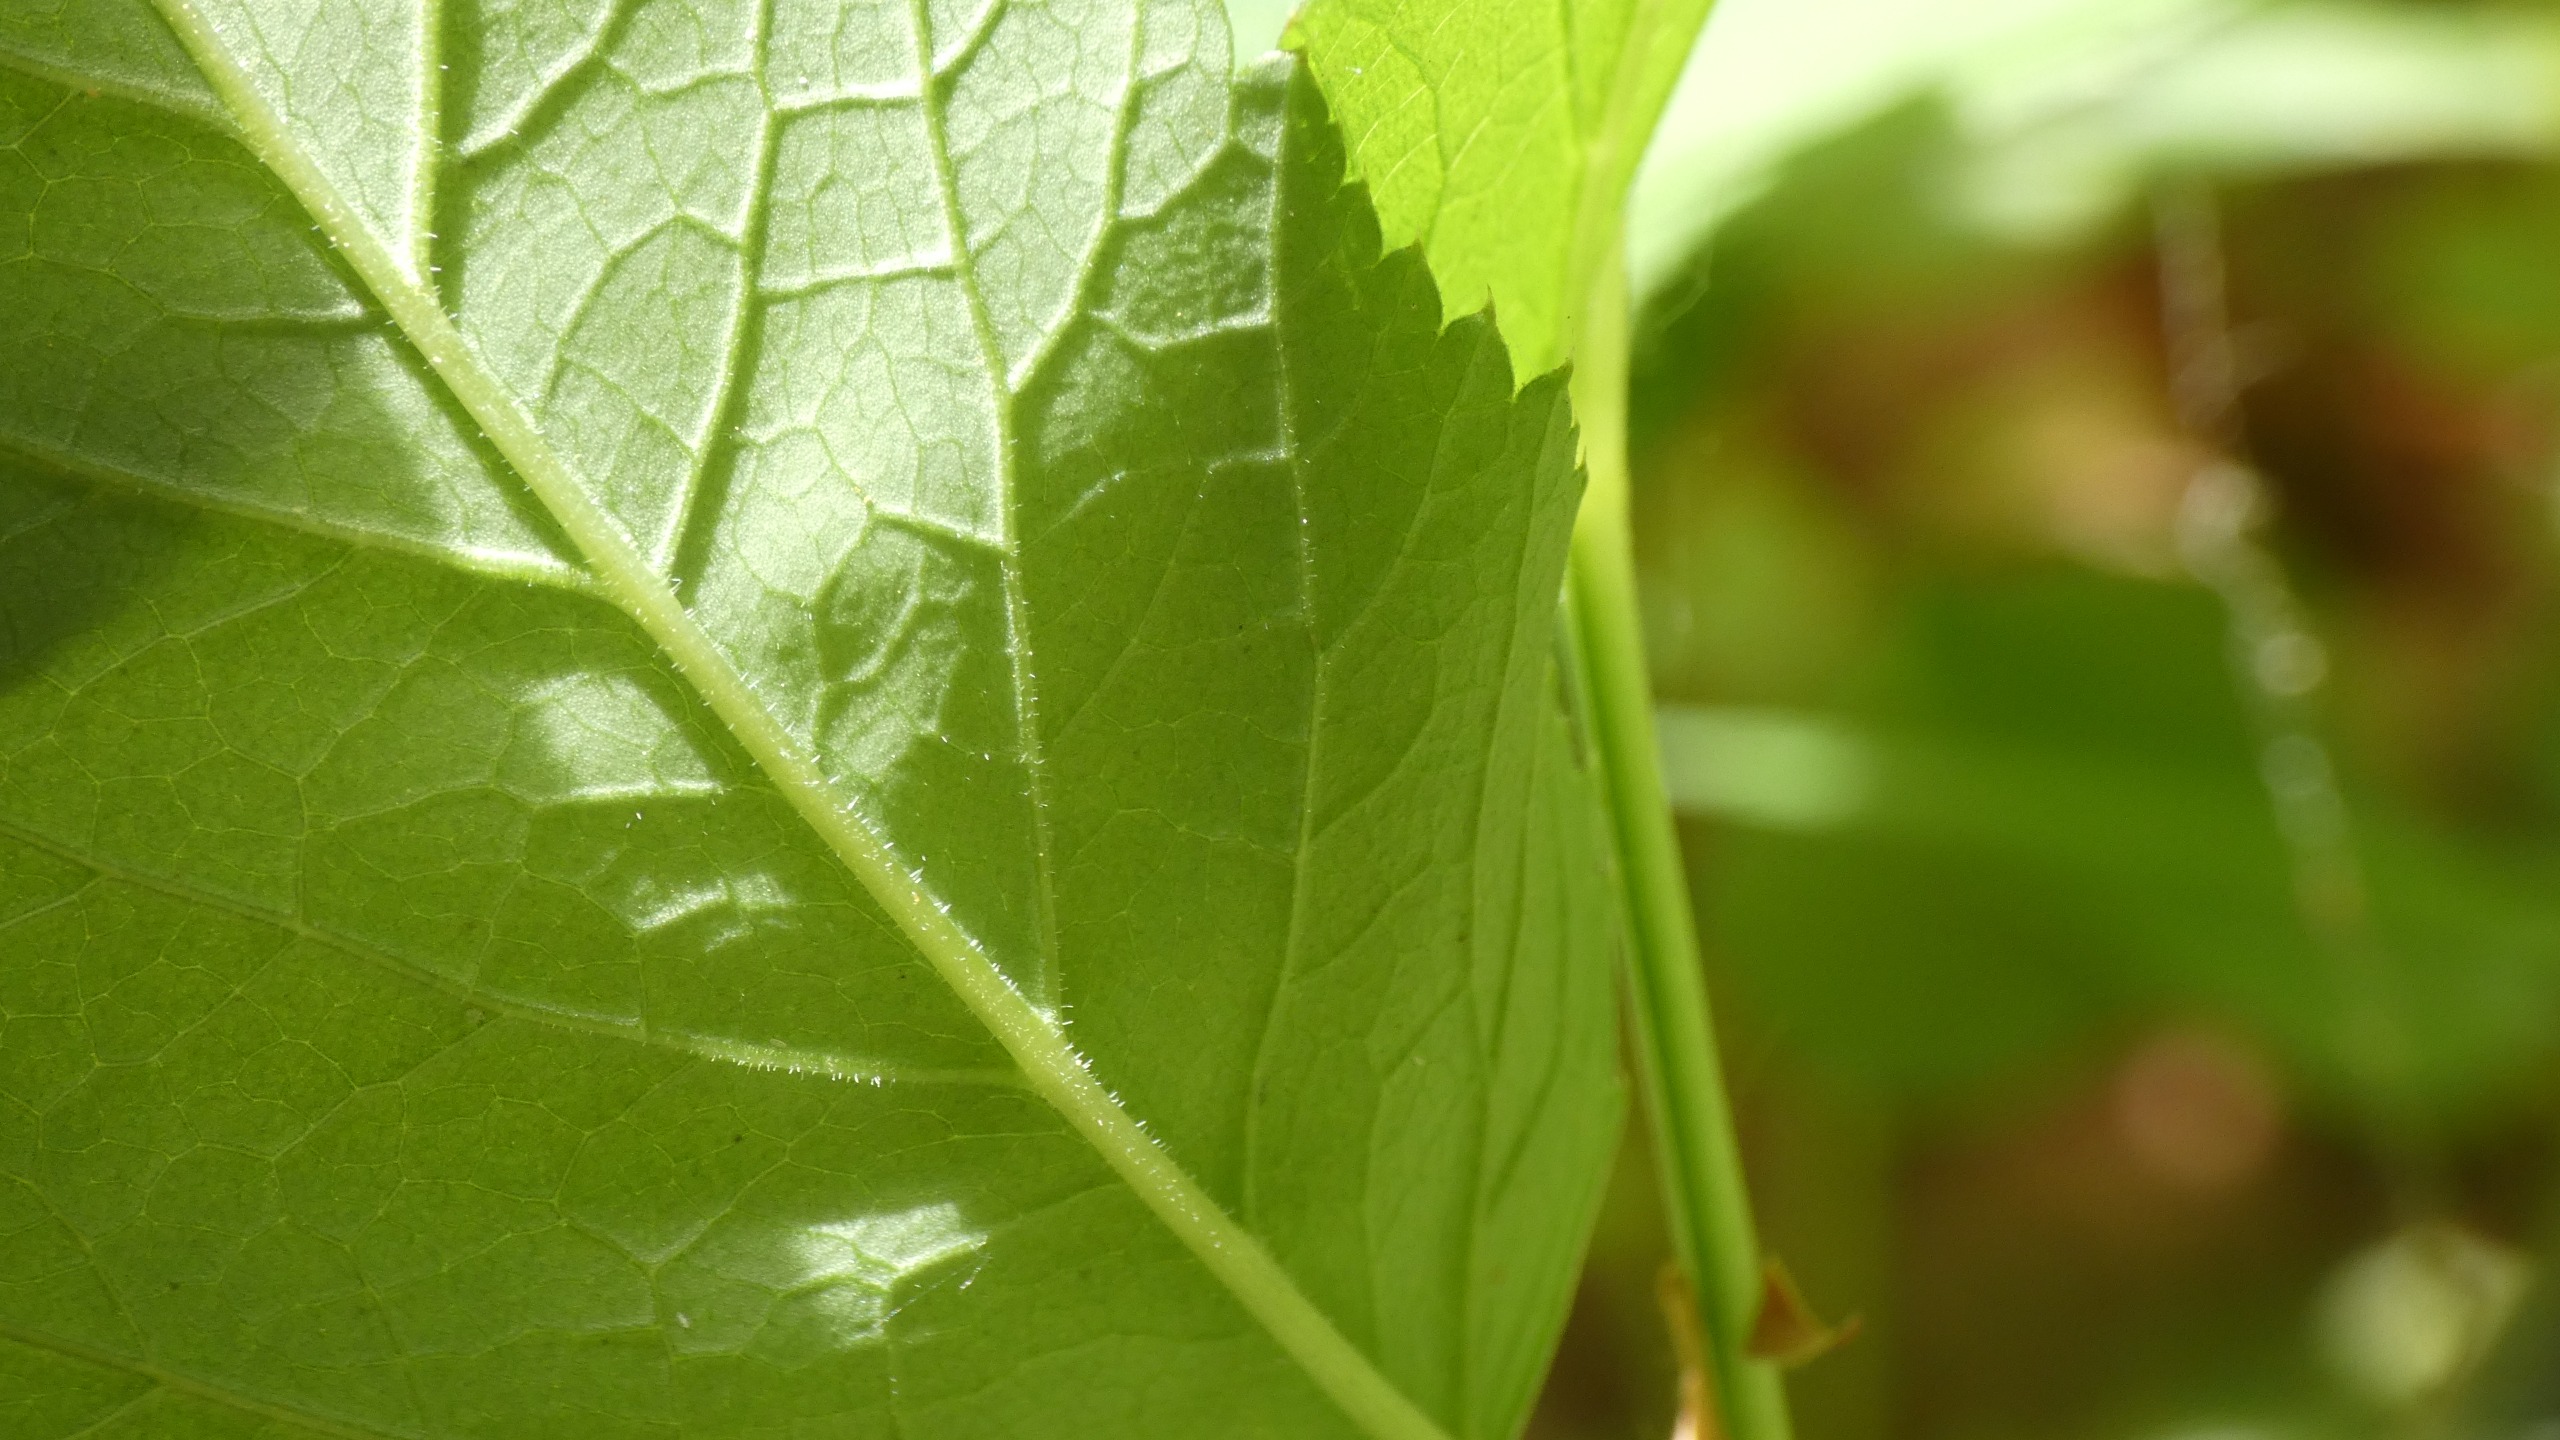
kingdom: Plantae
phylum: Tracheophyta
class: Magnoliopsida
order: Apiales
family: Apiaceae
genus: Aegopodium
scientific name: Aegopodium podagraria
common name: Skvalderkål
